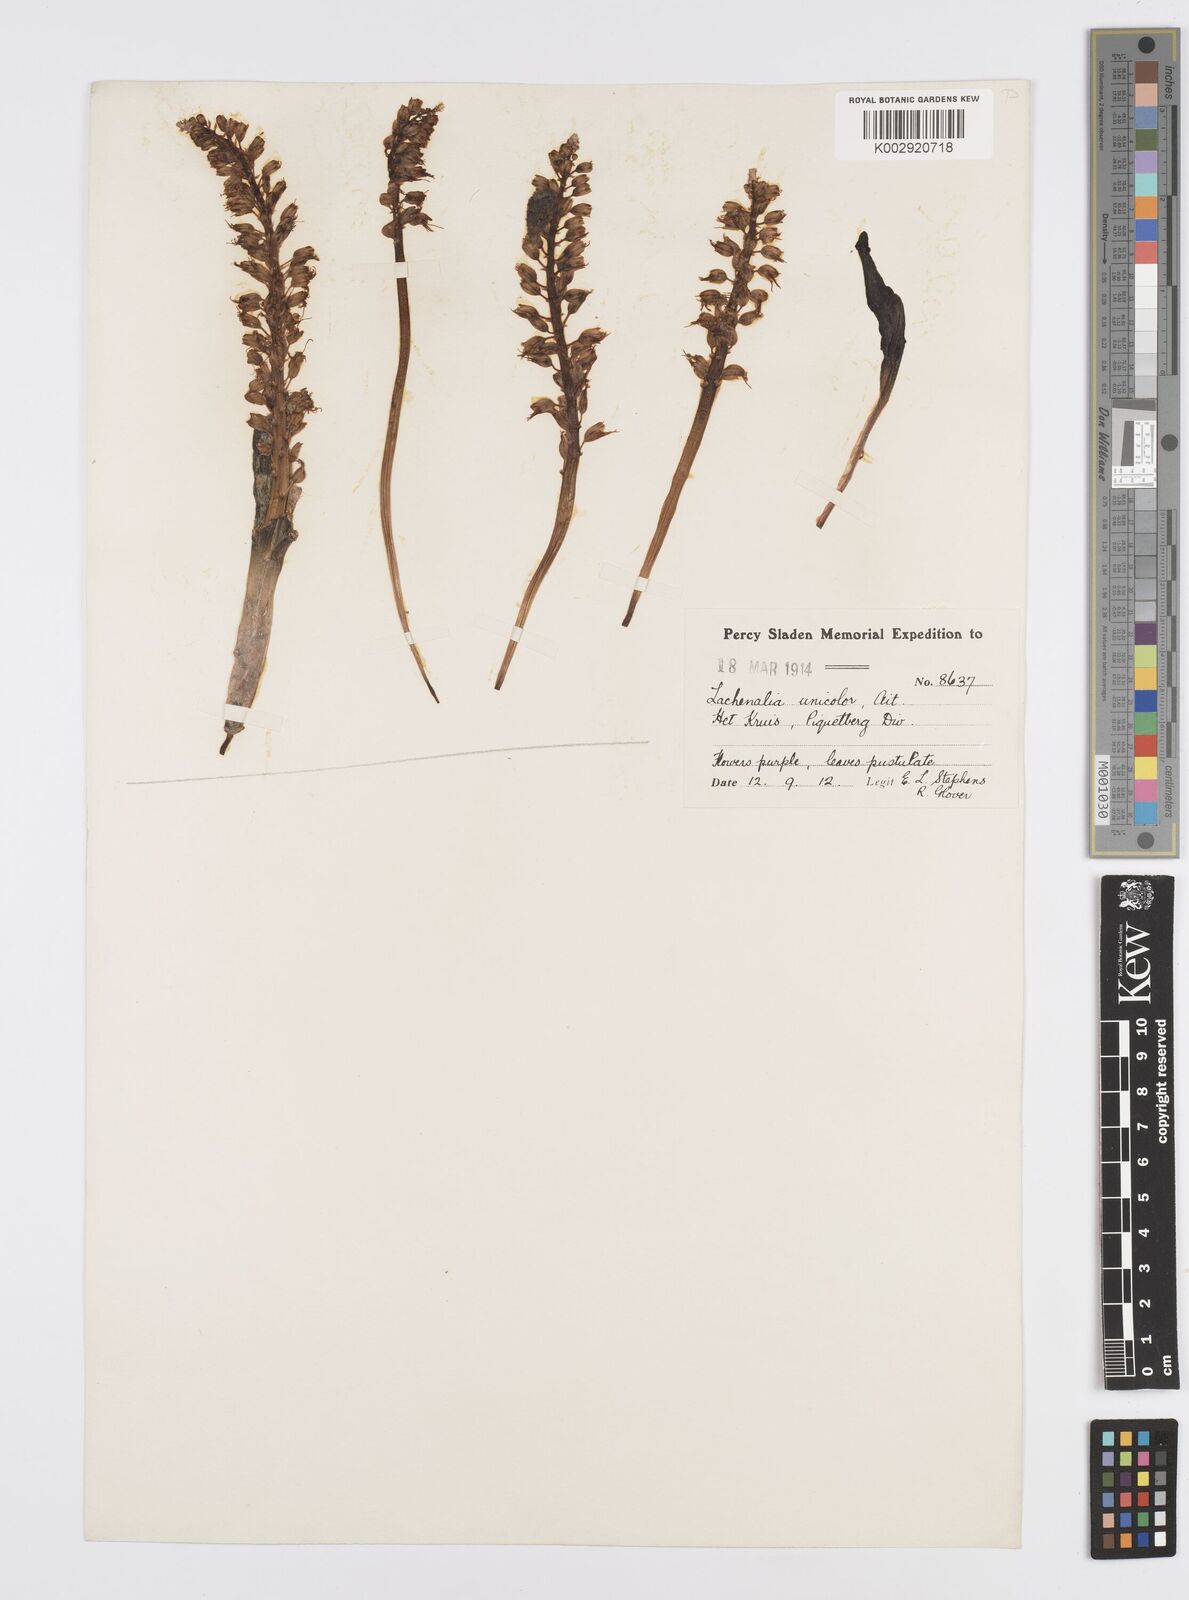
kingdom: Plantae
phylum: Tracheophyta
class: Liliopsida
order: Asparagales
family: Asparagaceae
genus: Lachenalia
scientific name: Lachenalia pallida
